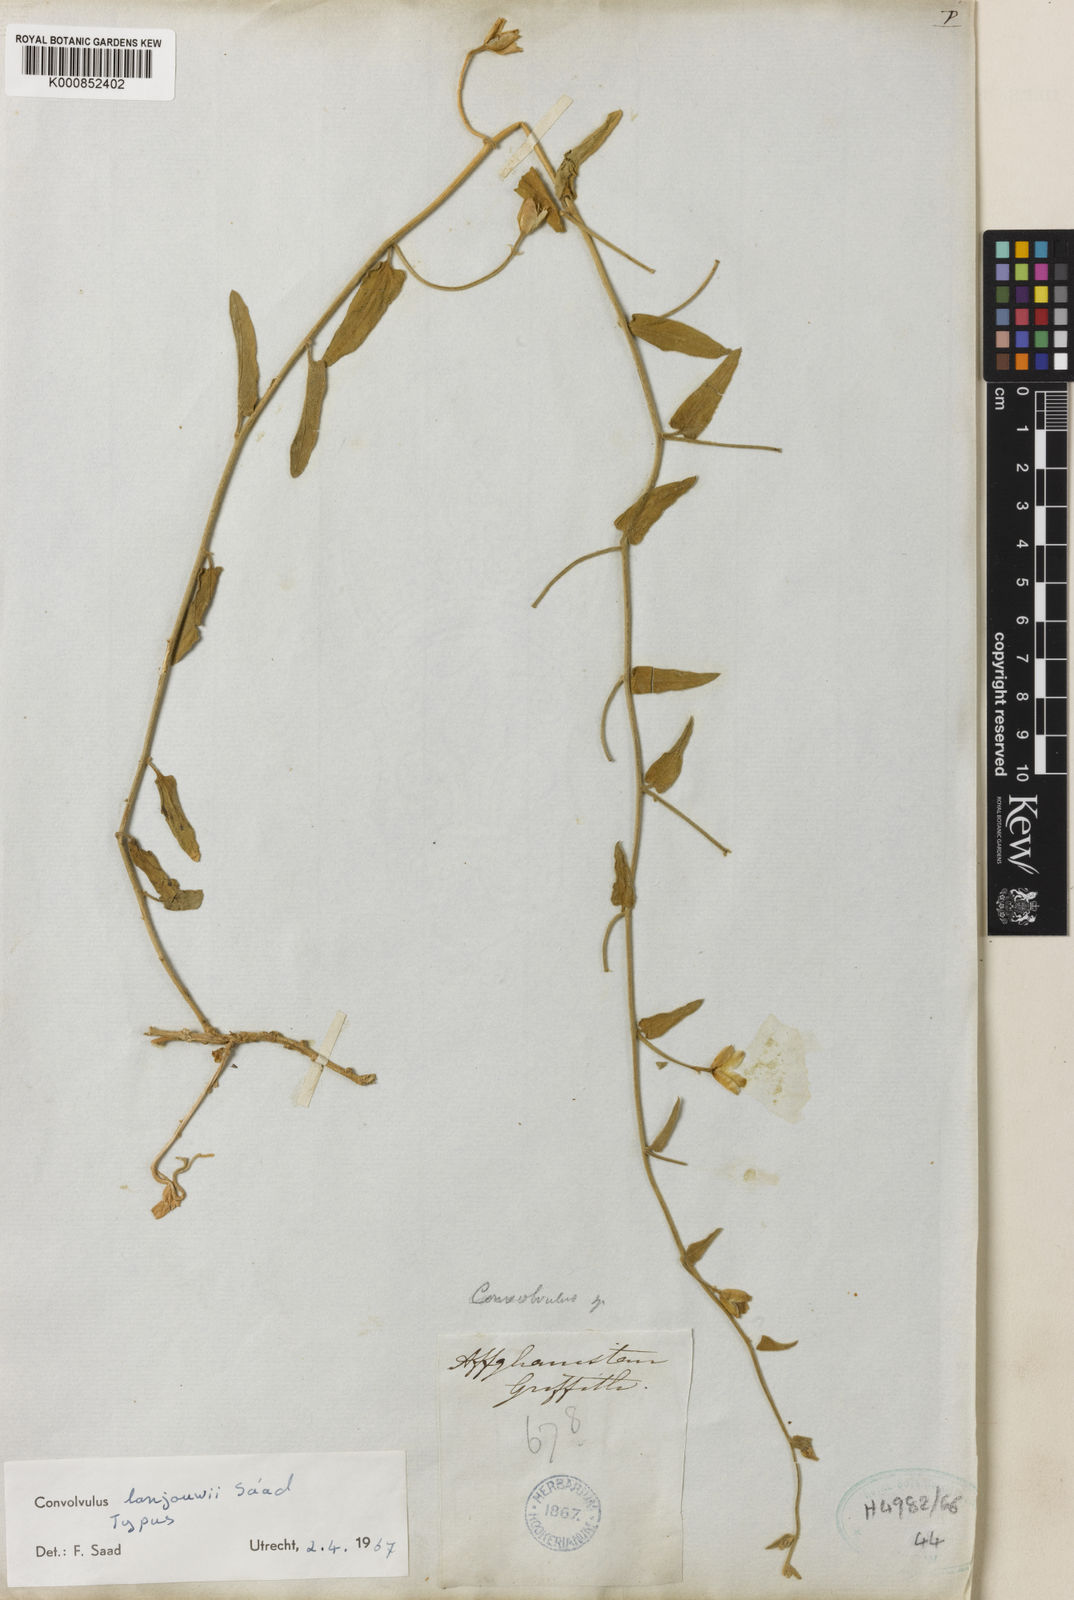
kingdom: Plantae
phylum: Tracheophyta
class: Magnoliopsida
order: Solanales
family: Convolvulaceae
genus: Convolvulus
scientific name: Convolvulus lanjouwii
